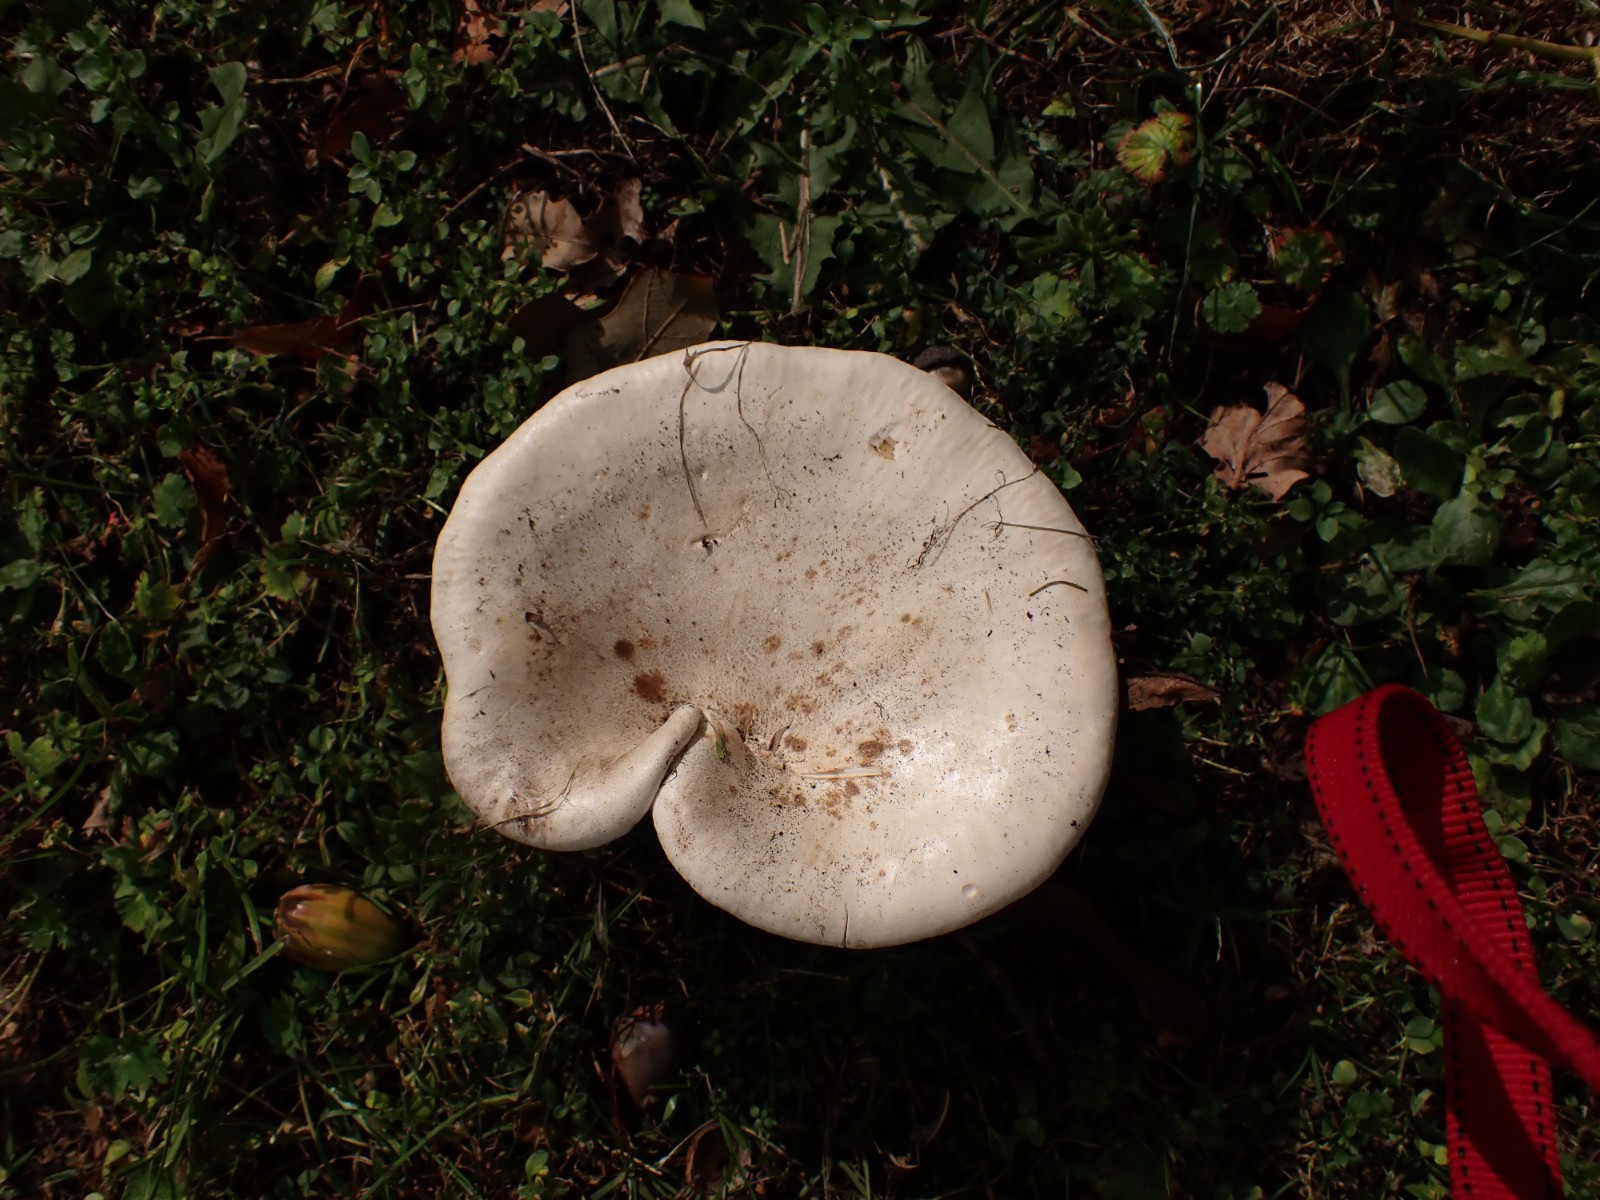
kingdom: Fungi
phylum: Basidiomycota
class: Agaricomycetes
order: Agaricales
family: Tricholomataceae
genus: Aspropaxillus
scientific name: Aspropaxillus giganteus
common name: kæmpe-tragtridderhat
